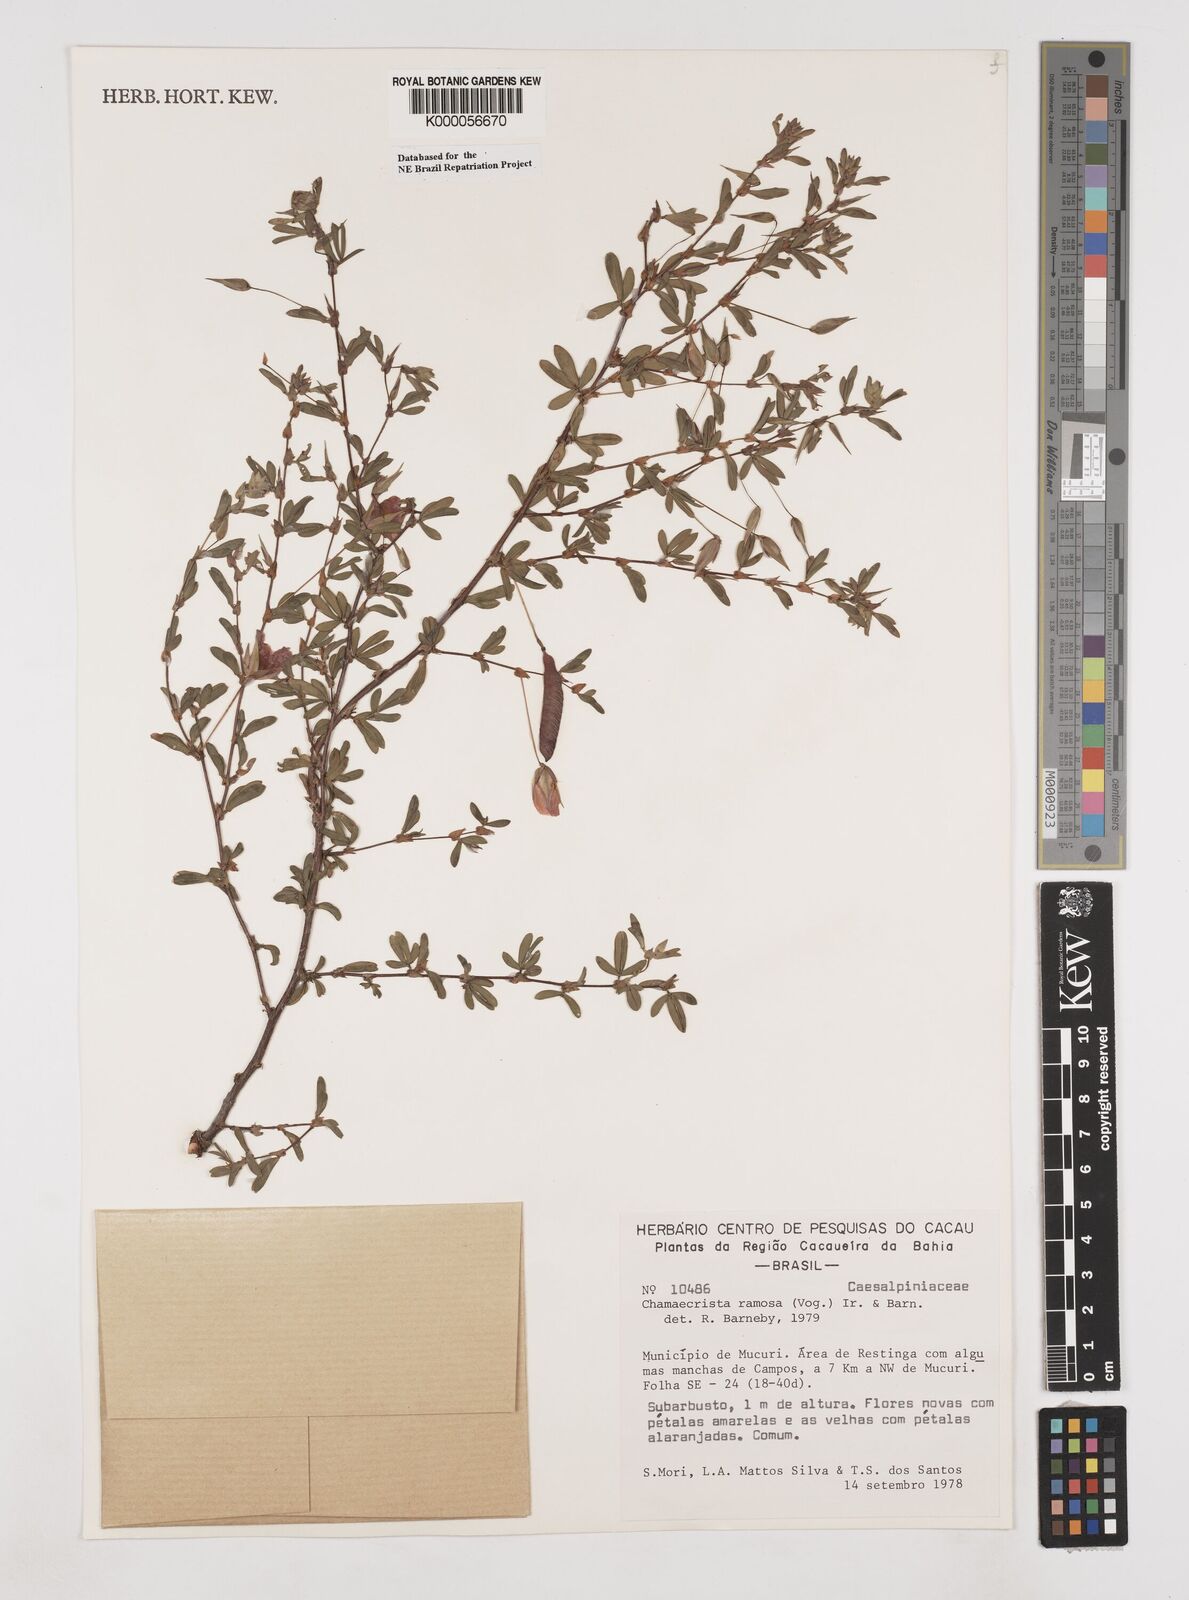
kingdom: Plantae
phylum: Tracheophyta
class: Magnoliopsida
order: Fabales
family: Fabaceae
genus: Chamaecrista
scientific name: Chamaecrista ramosa
